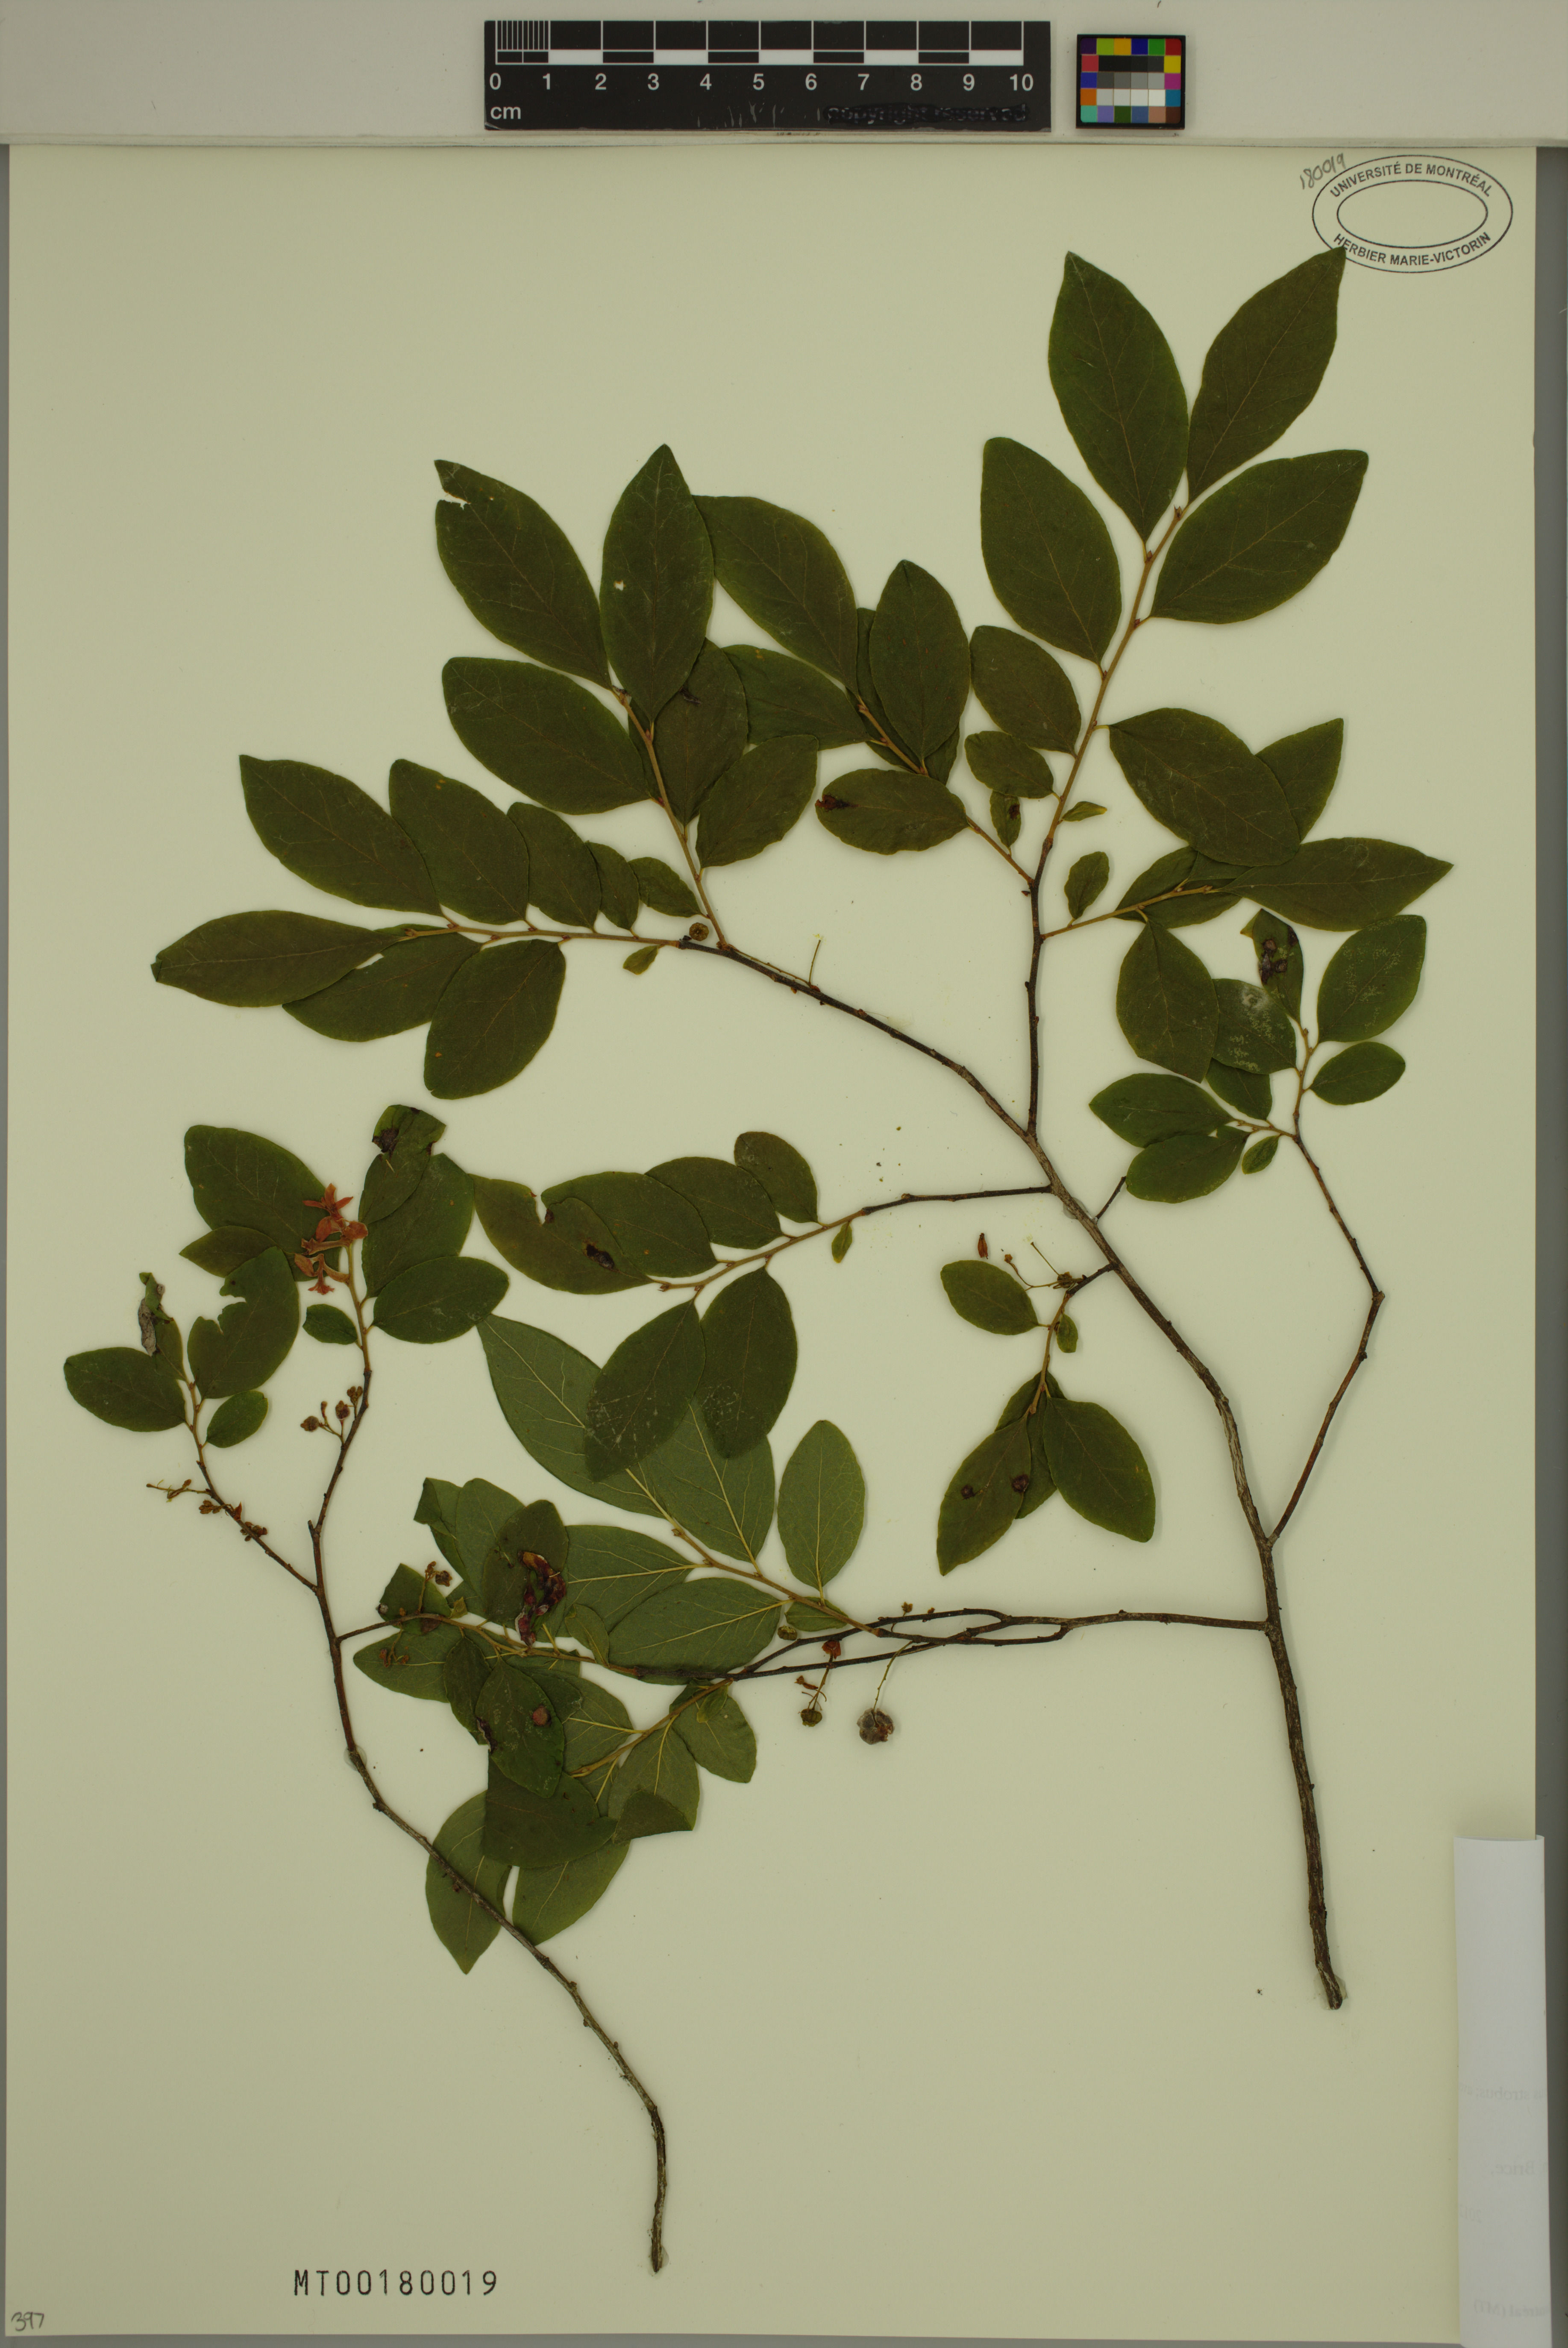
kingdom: Plantae
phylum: Tracheophyta
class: Magnoliopsida
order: Ericales
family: Ericaceae
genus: Gaylussacia
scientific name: Gaylussacia baccata
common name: Black huckleberry
